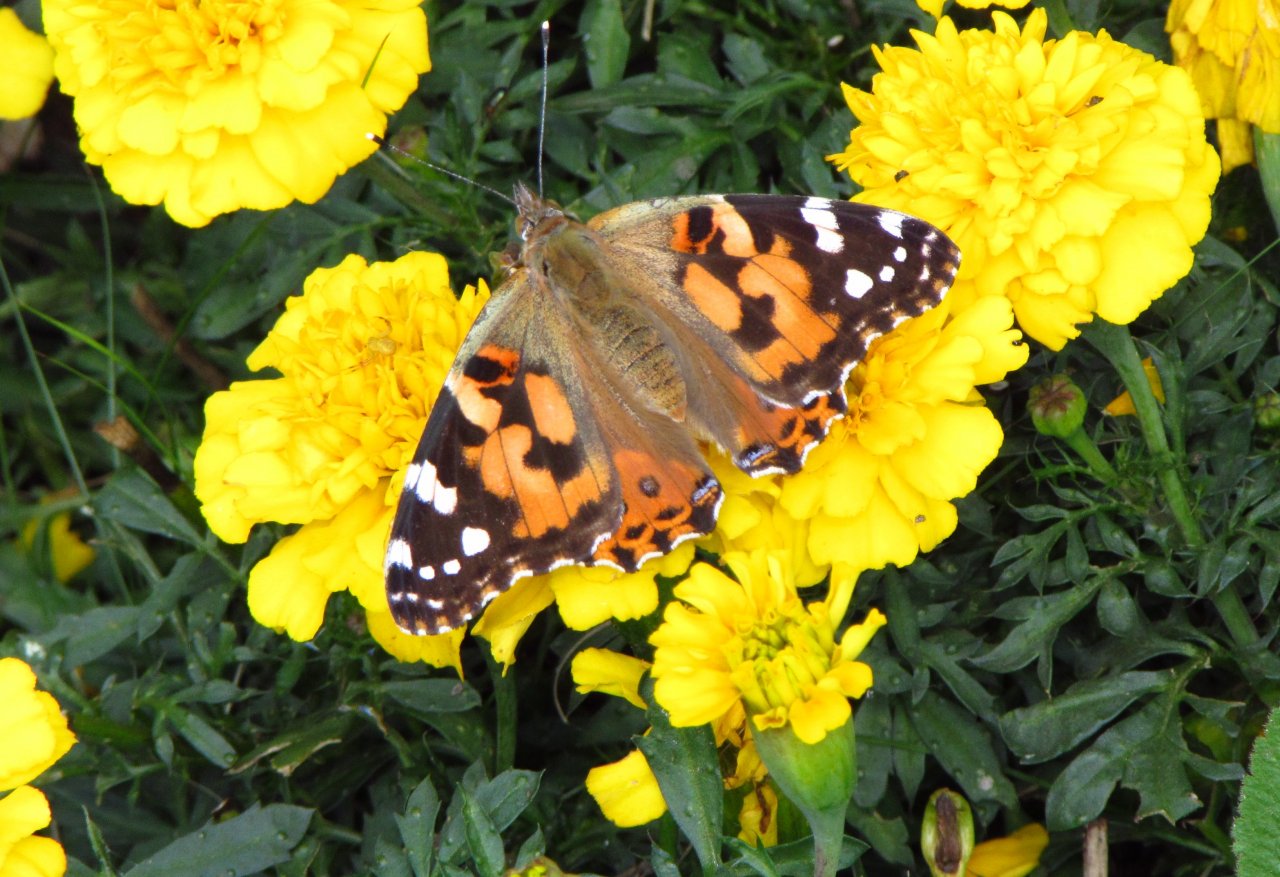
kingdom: Animalia
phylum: Arthropoda
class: Insecta
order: Lepidoptera
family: Nymphalidae
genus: Vanessa
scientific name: Vanessa cardui
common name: Painted Lady
